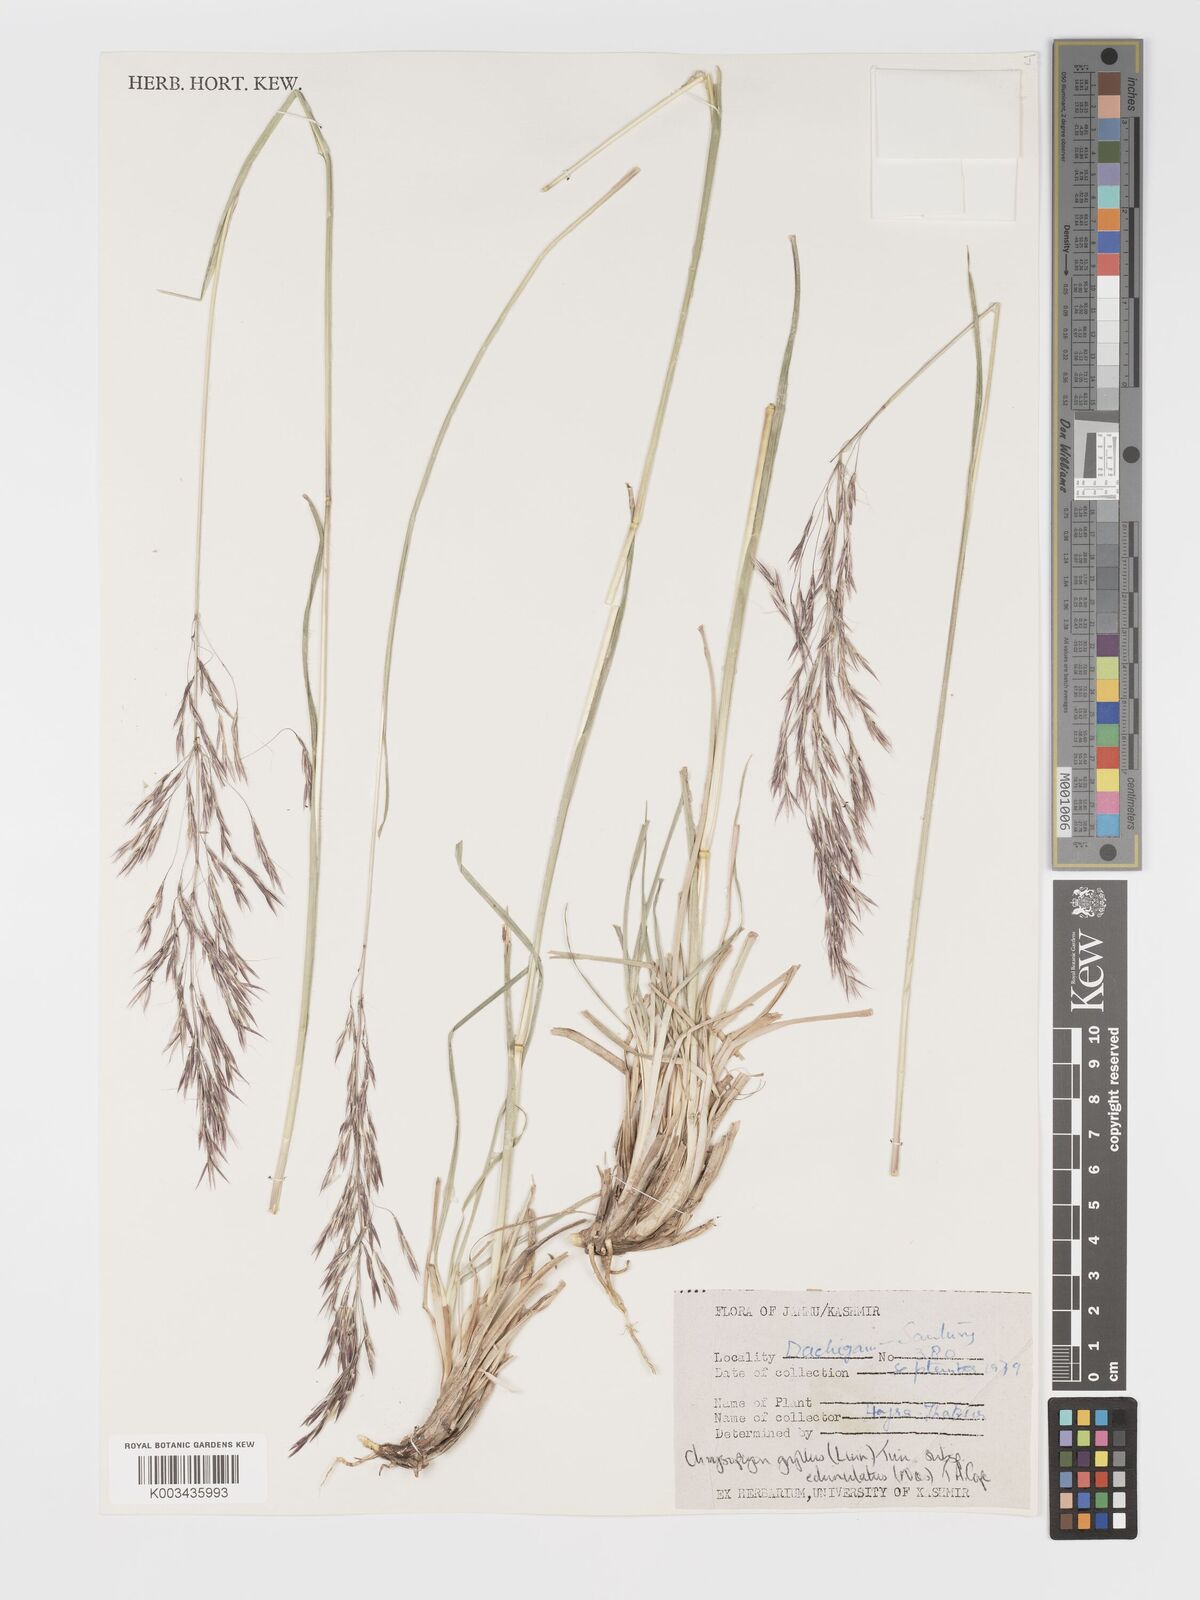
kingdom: Plantae
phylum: Tracheophyta
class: Liliopsida
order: Poales
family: Poaceae
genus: Chrysopogon
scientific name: Chrysopogon gryllus
